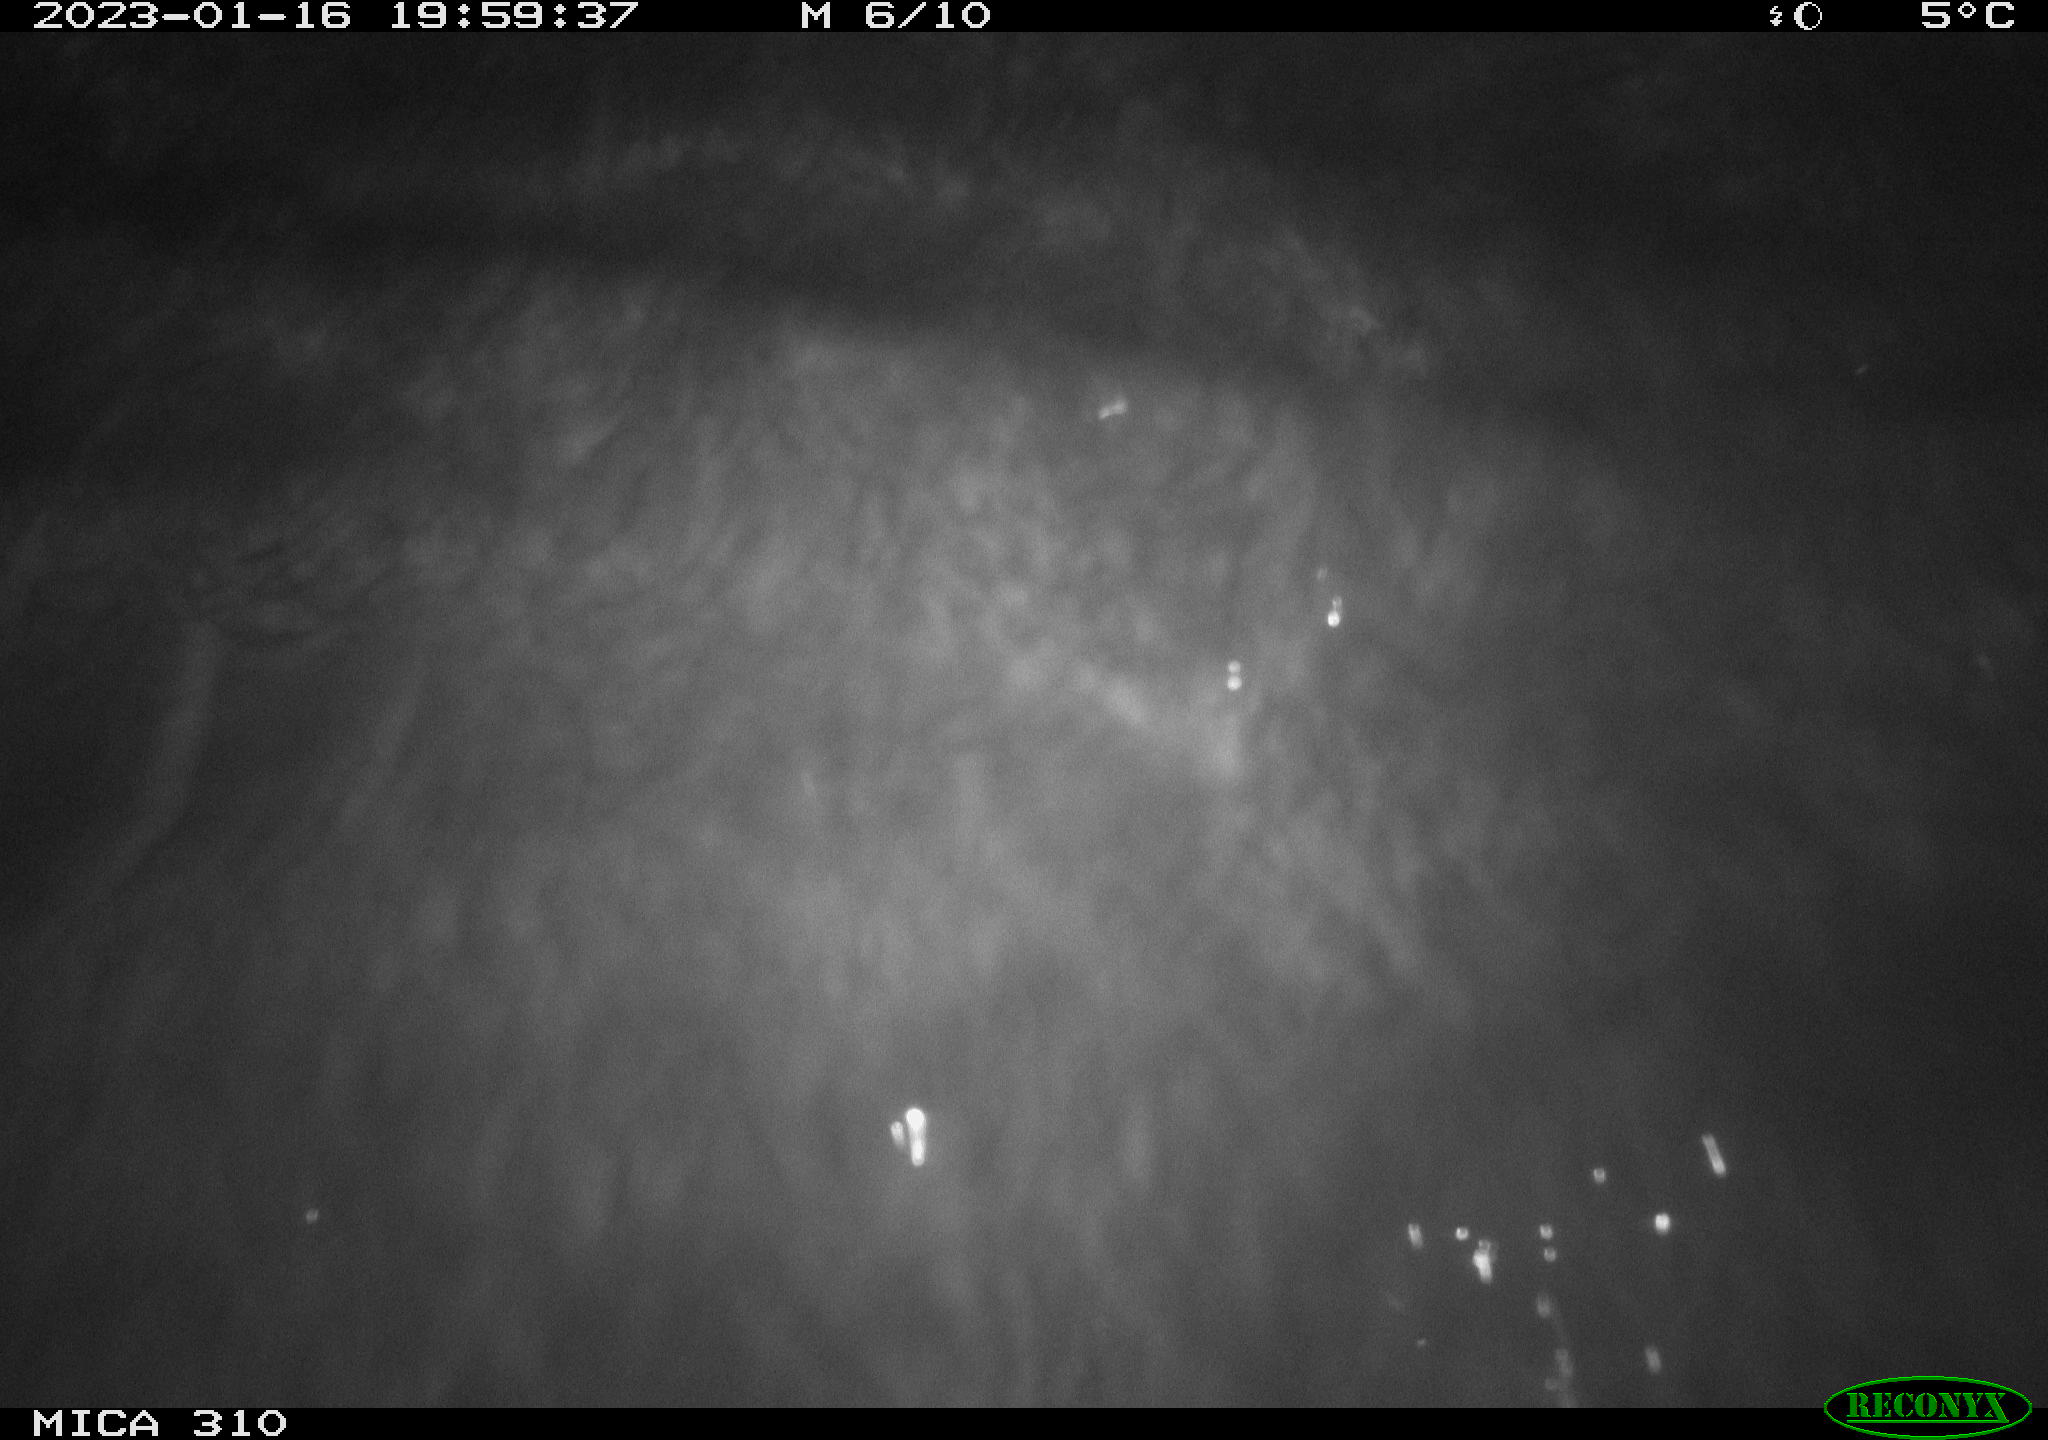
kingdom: Animalia
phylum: Chordata
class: Mammalia
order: Rodentia
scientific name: Rodentia
